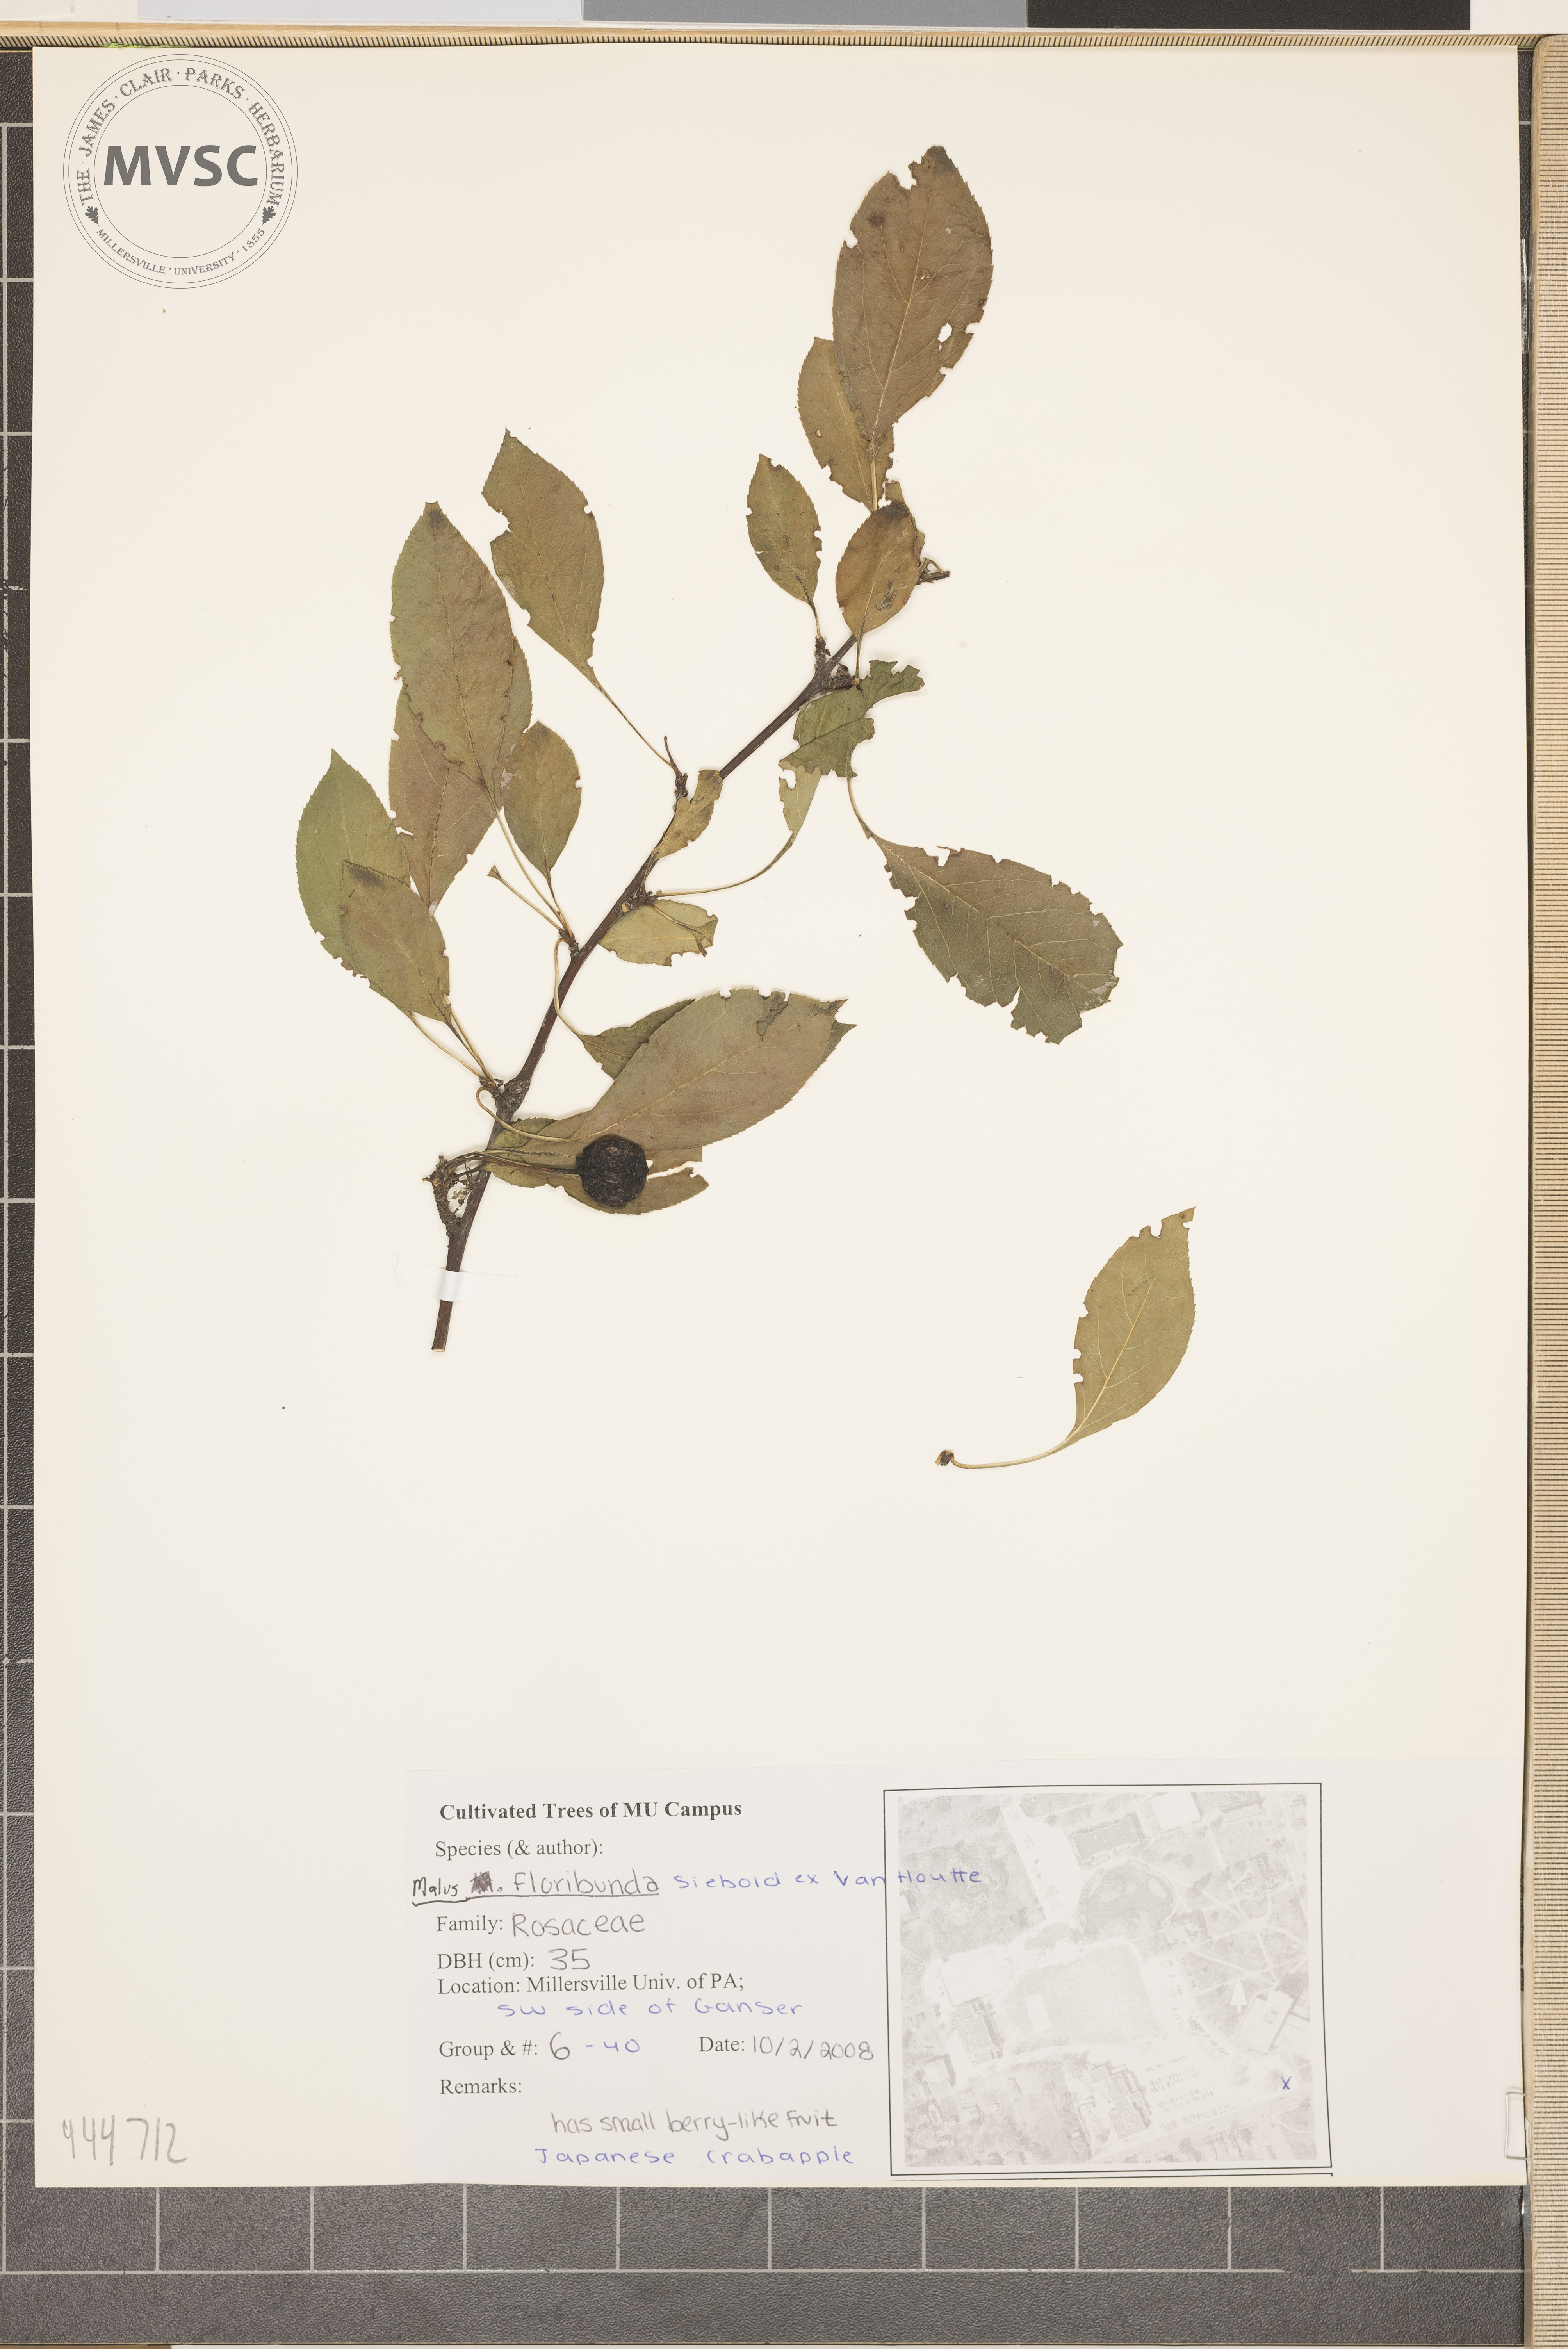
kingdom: Plantae
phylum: Tracheophyta
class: Magnoliopsida
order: Rosales
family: Rosaceae
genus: Malus
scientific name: Malus floribunda
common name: Japanese crab
